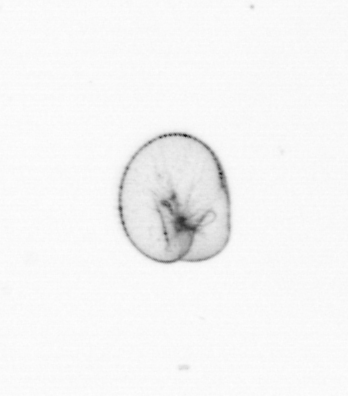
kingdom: Chromista
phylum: Myzozoa
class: Dinophyceae
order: Noctilucales
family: Noctilucaceae
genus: Noctiluca
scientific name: Noctiluca scintillans
